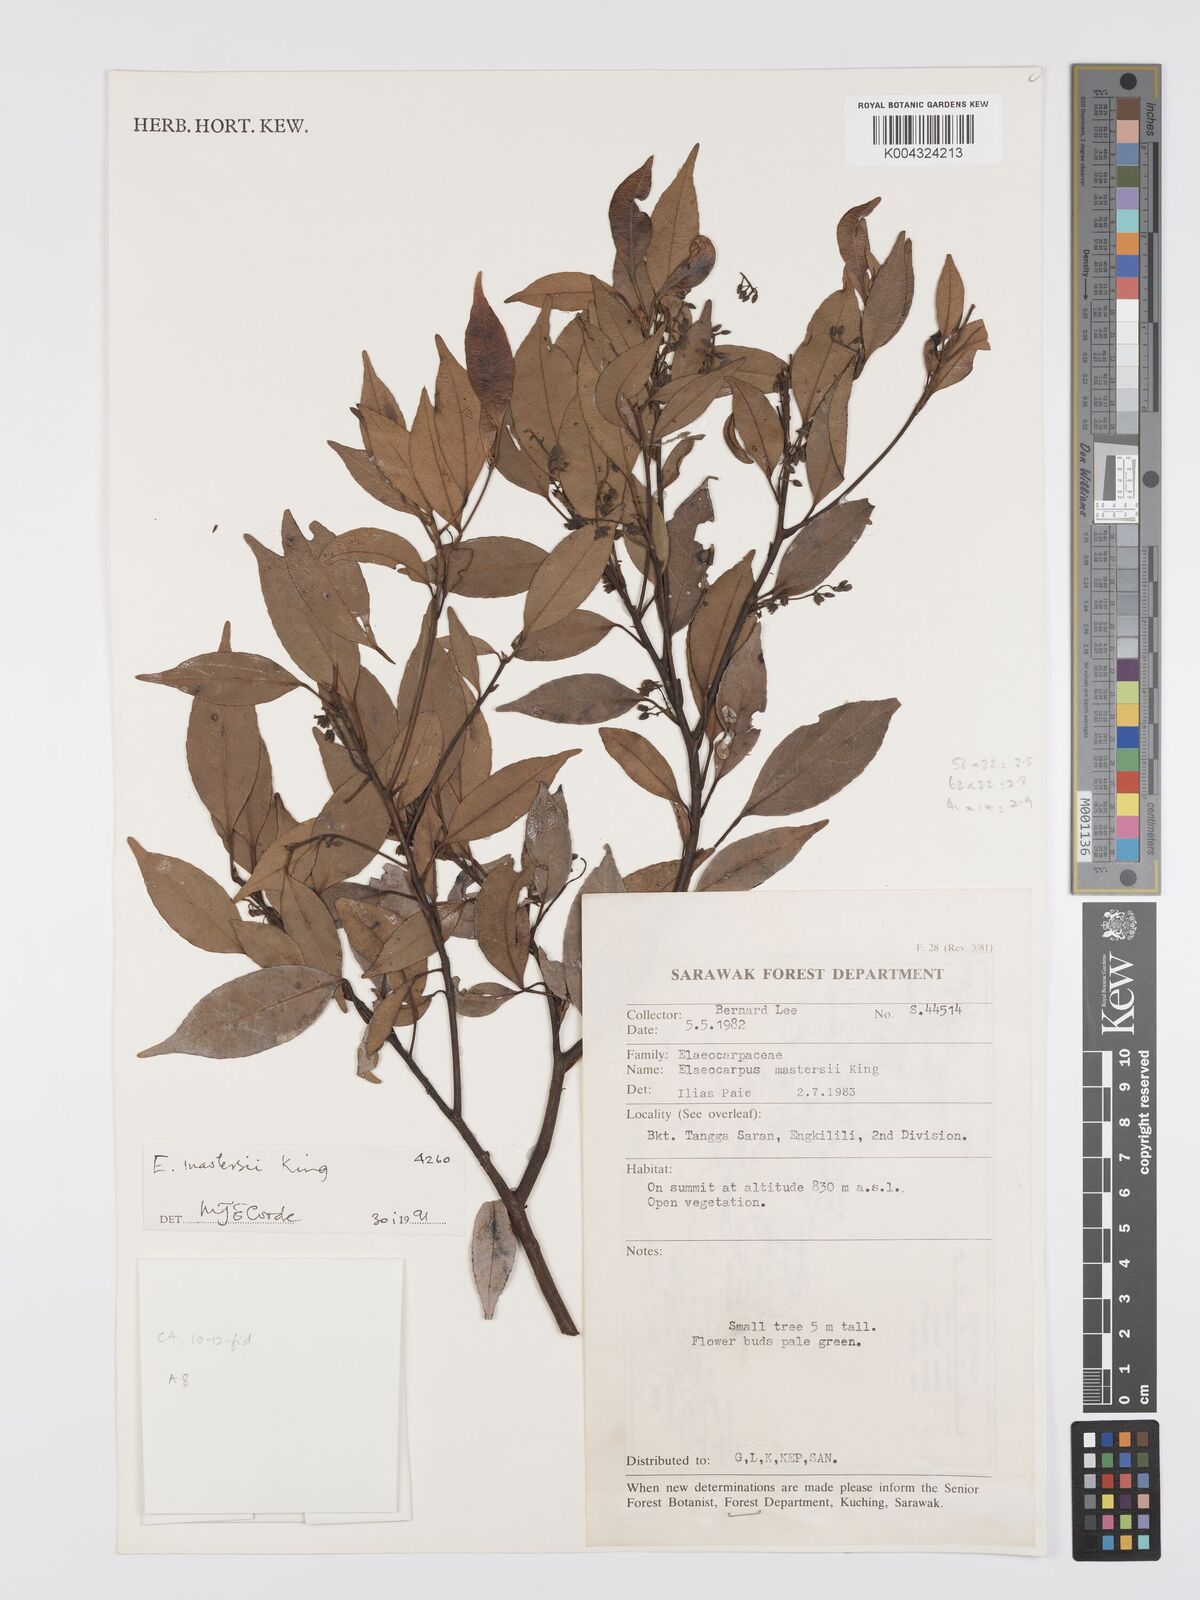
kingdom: Plantae
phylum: Tracheophyta
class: Magnoliopsida
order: Oxalidales
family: Elaeocarpaceae
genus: Elaeocarpus
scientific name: Elaeocarpus mastersii
